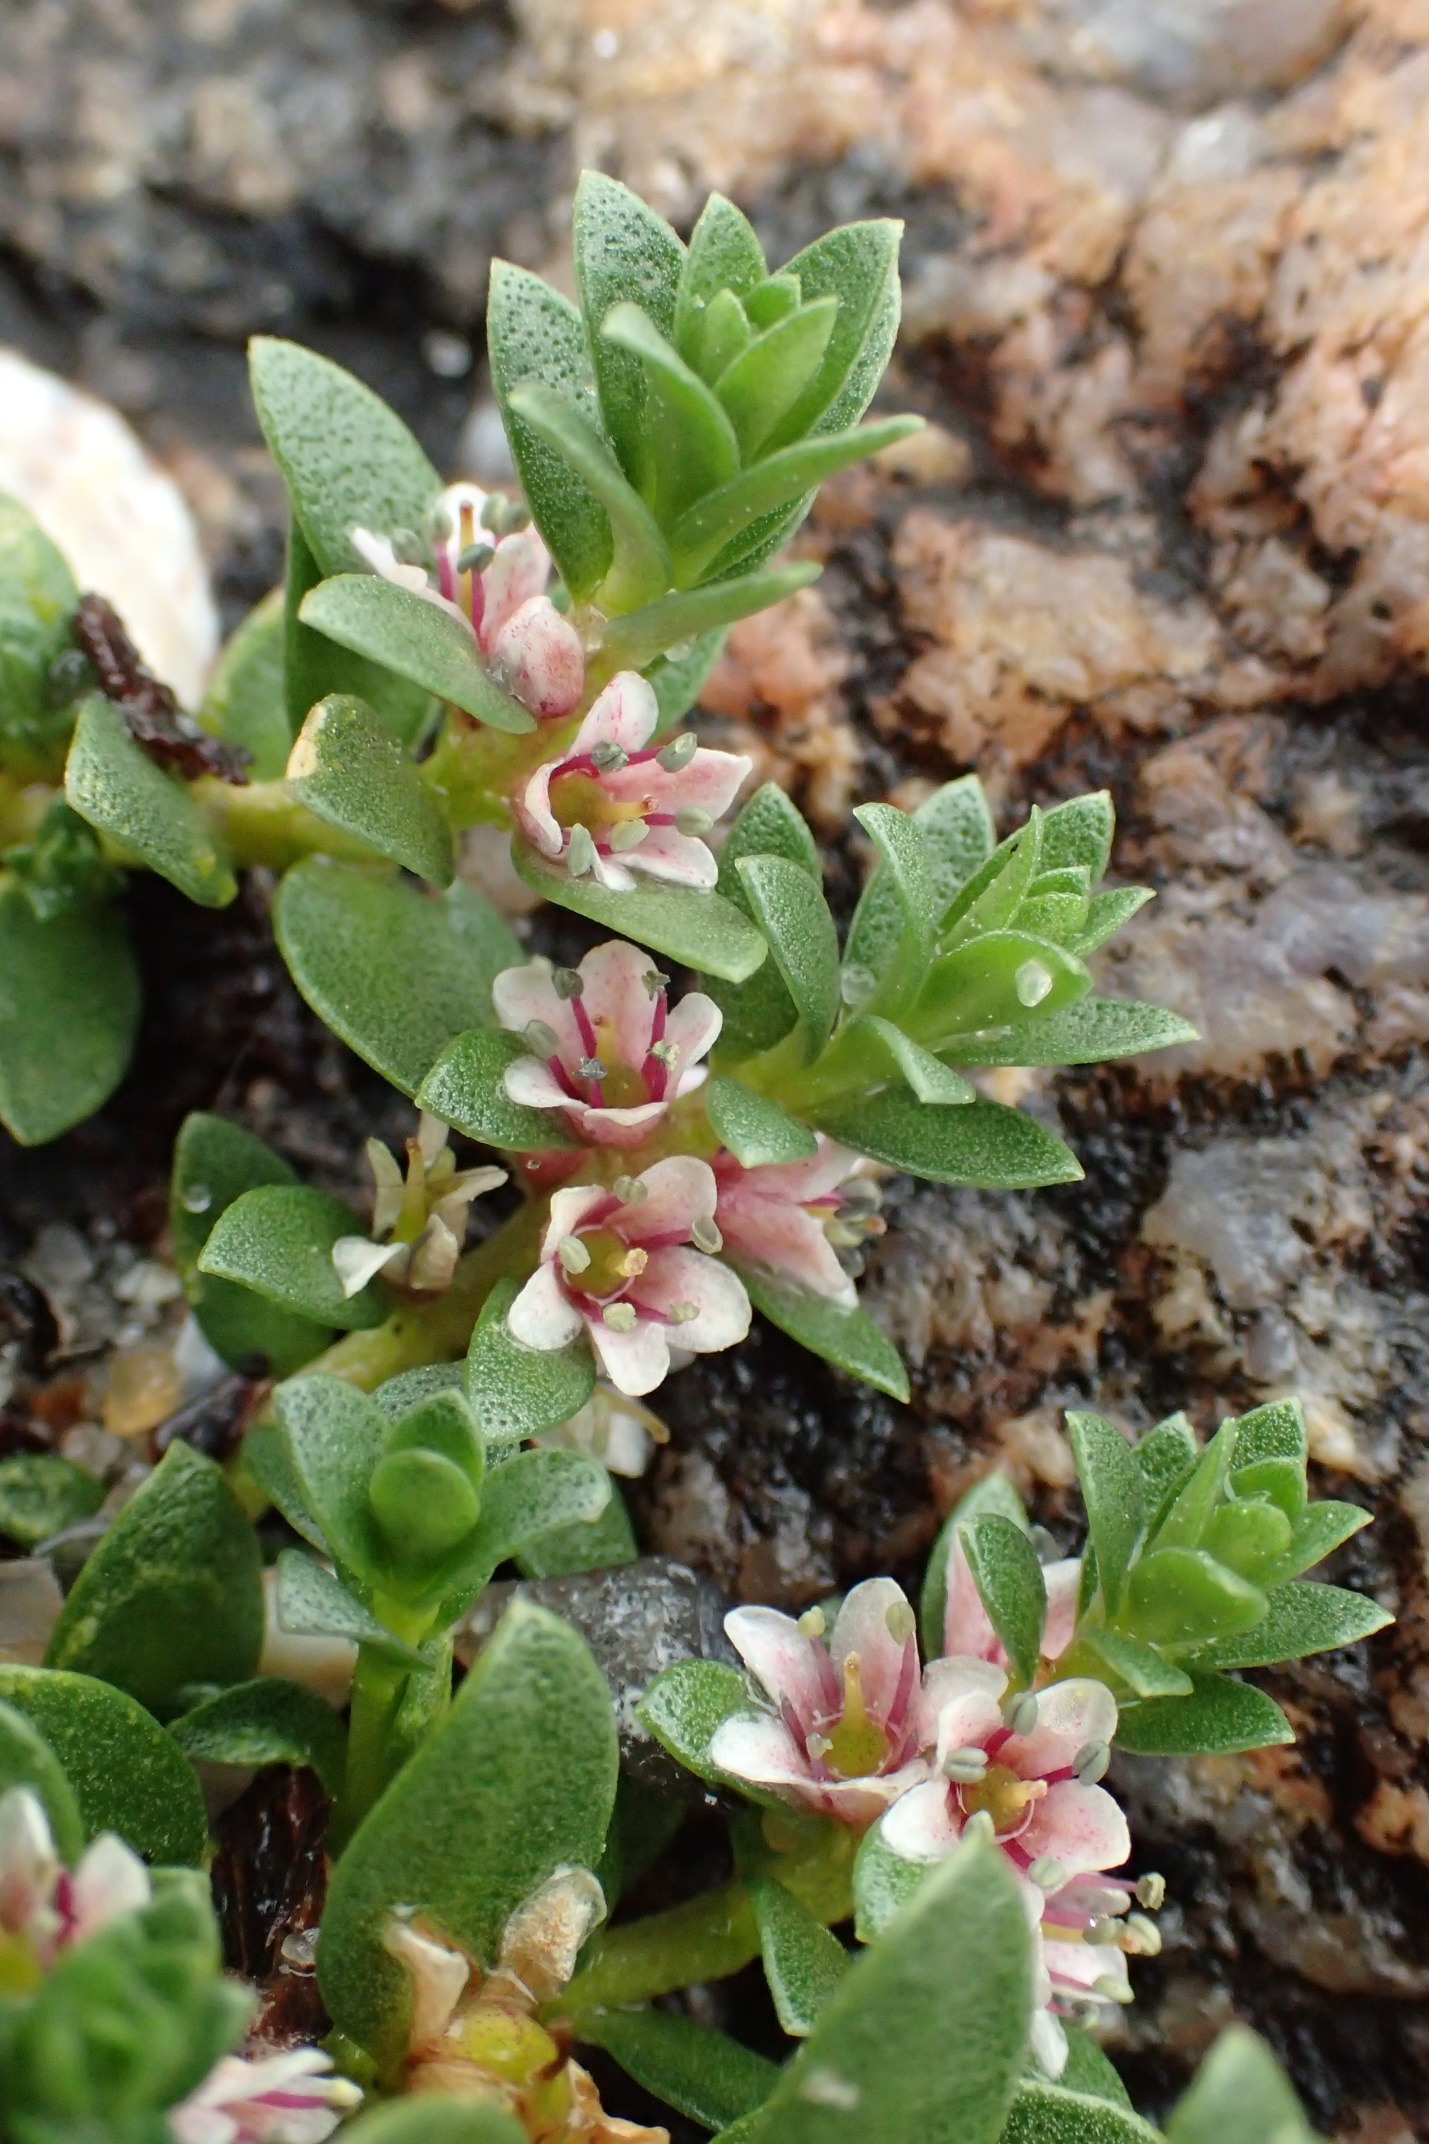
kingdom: Plantae
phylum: Tracheophyta
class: Magnoliopsida
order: Ericales
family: Primulaceae
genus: Lysimachia
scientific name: Lysimachia maritima
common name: Sandkryb
